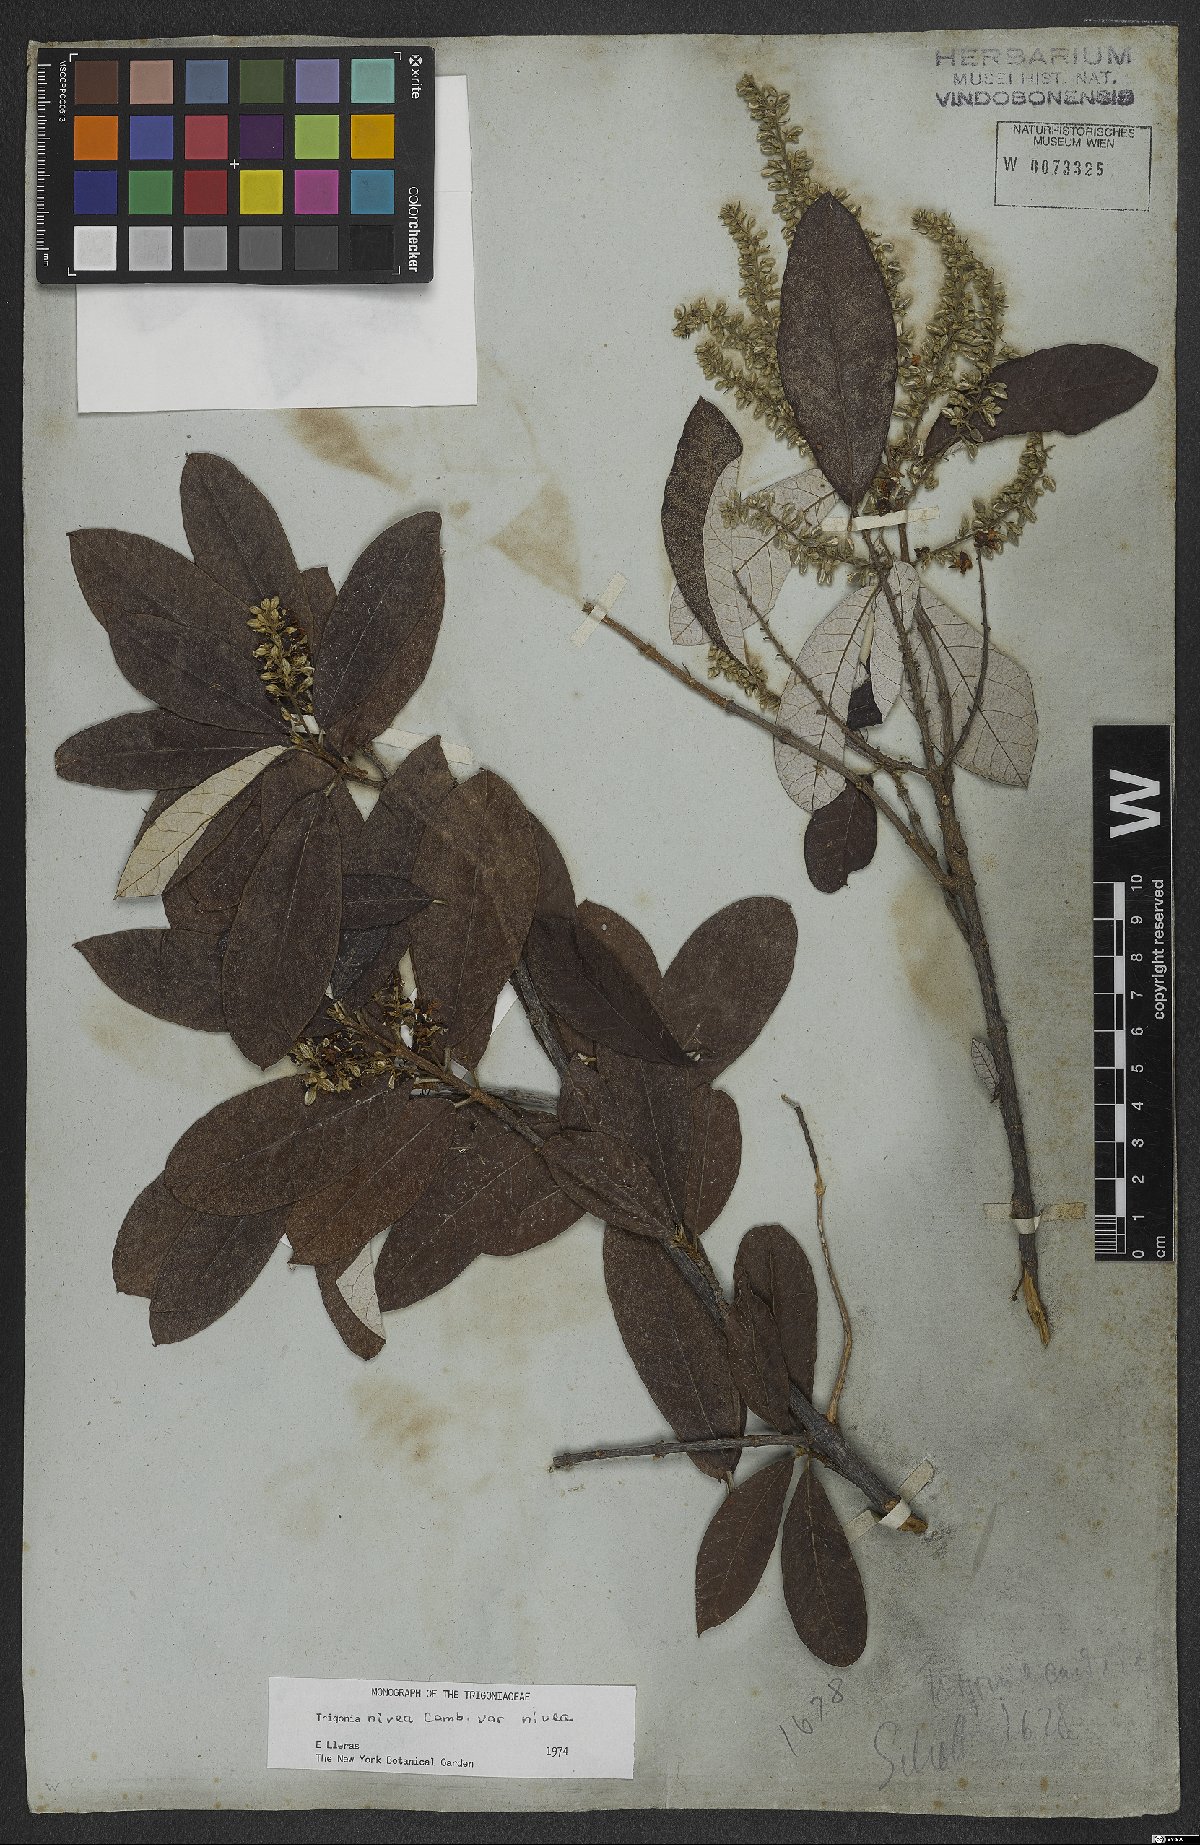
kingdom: Plantae
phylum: Tracheophyta
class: Magnoliopsida
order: Malpighiales
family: Trigoniaceae
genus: Trigonia
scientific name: Trigonia nivea
